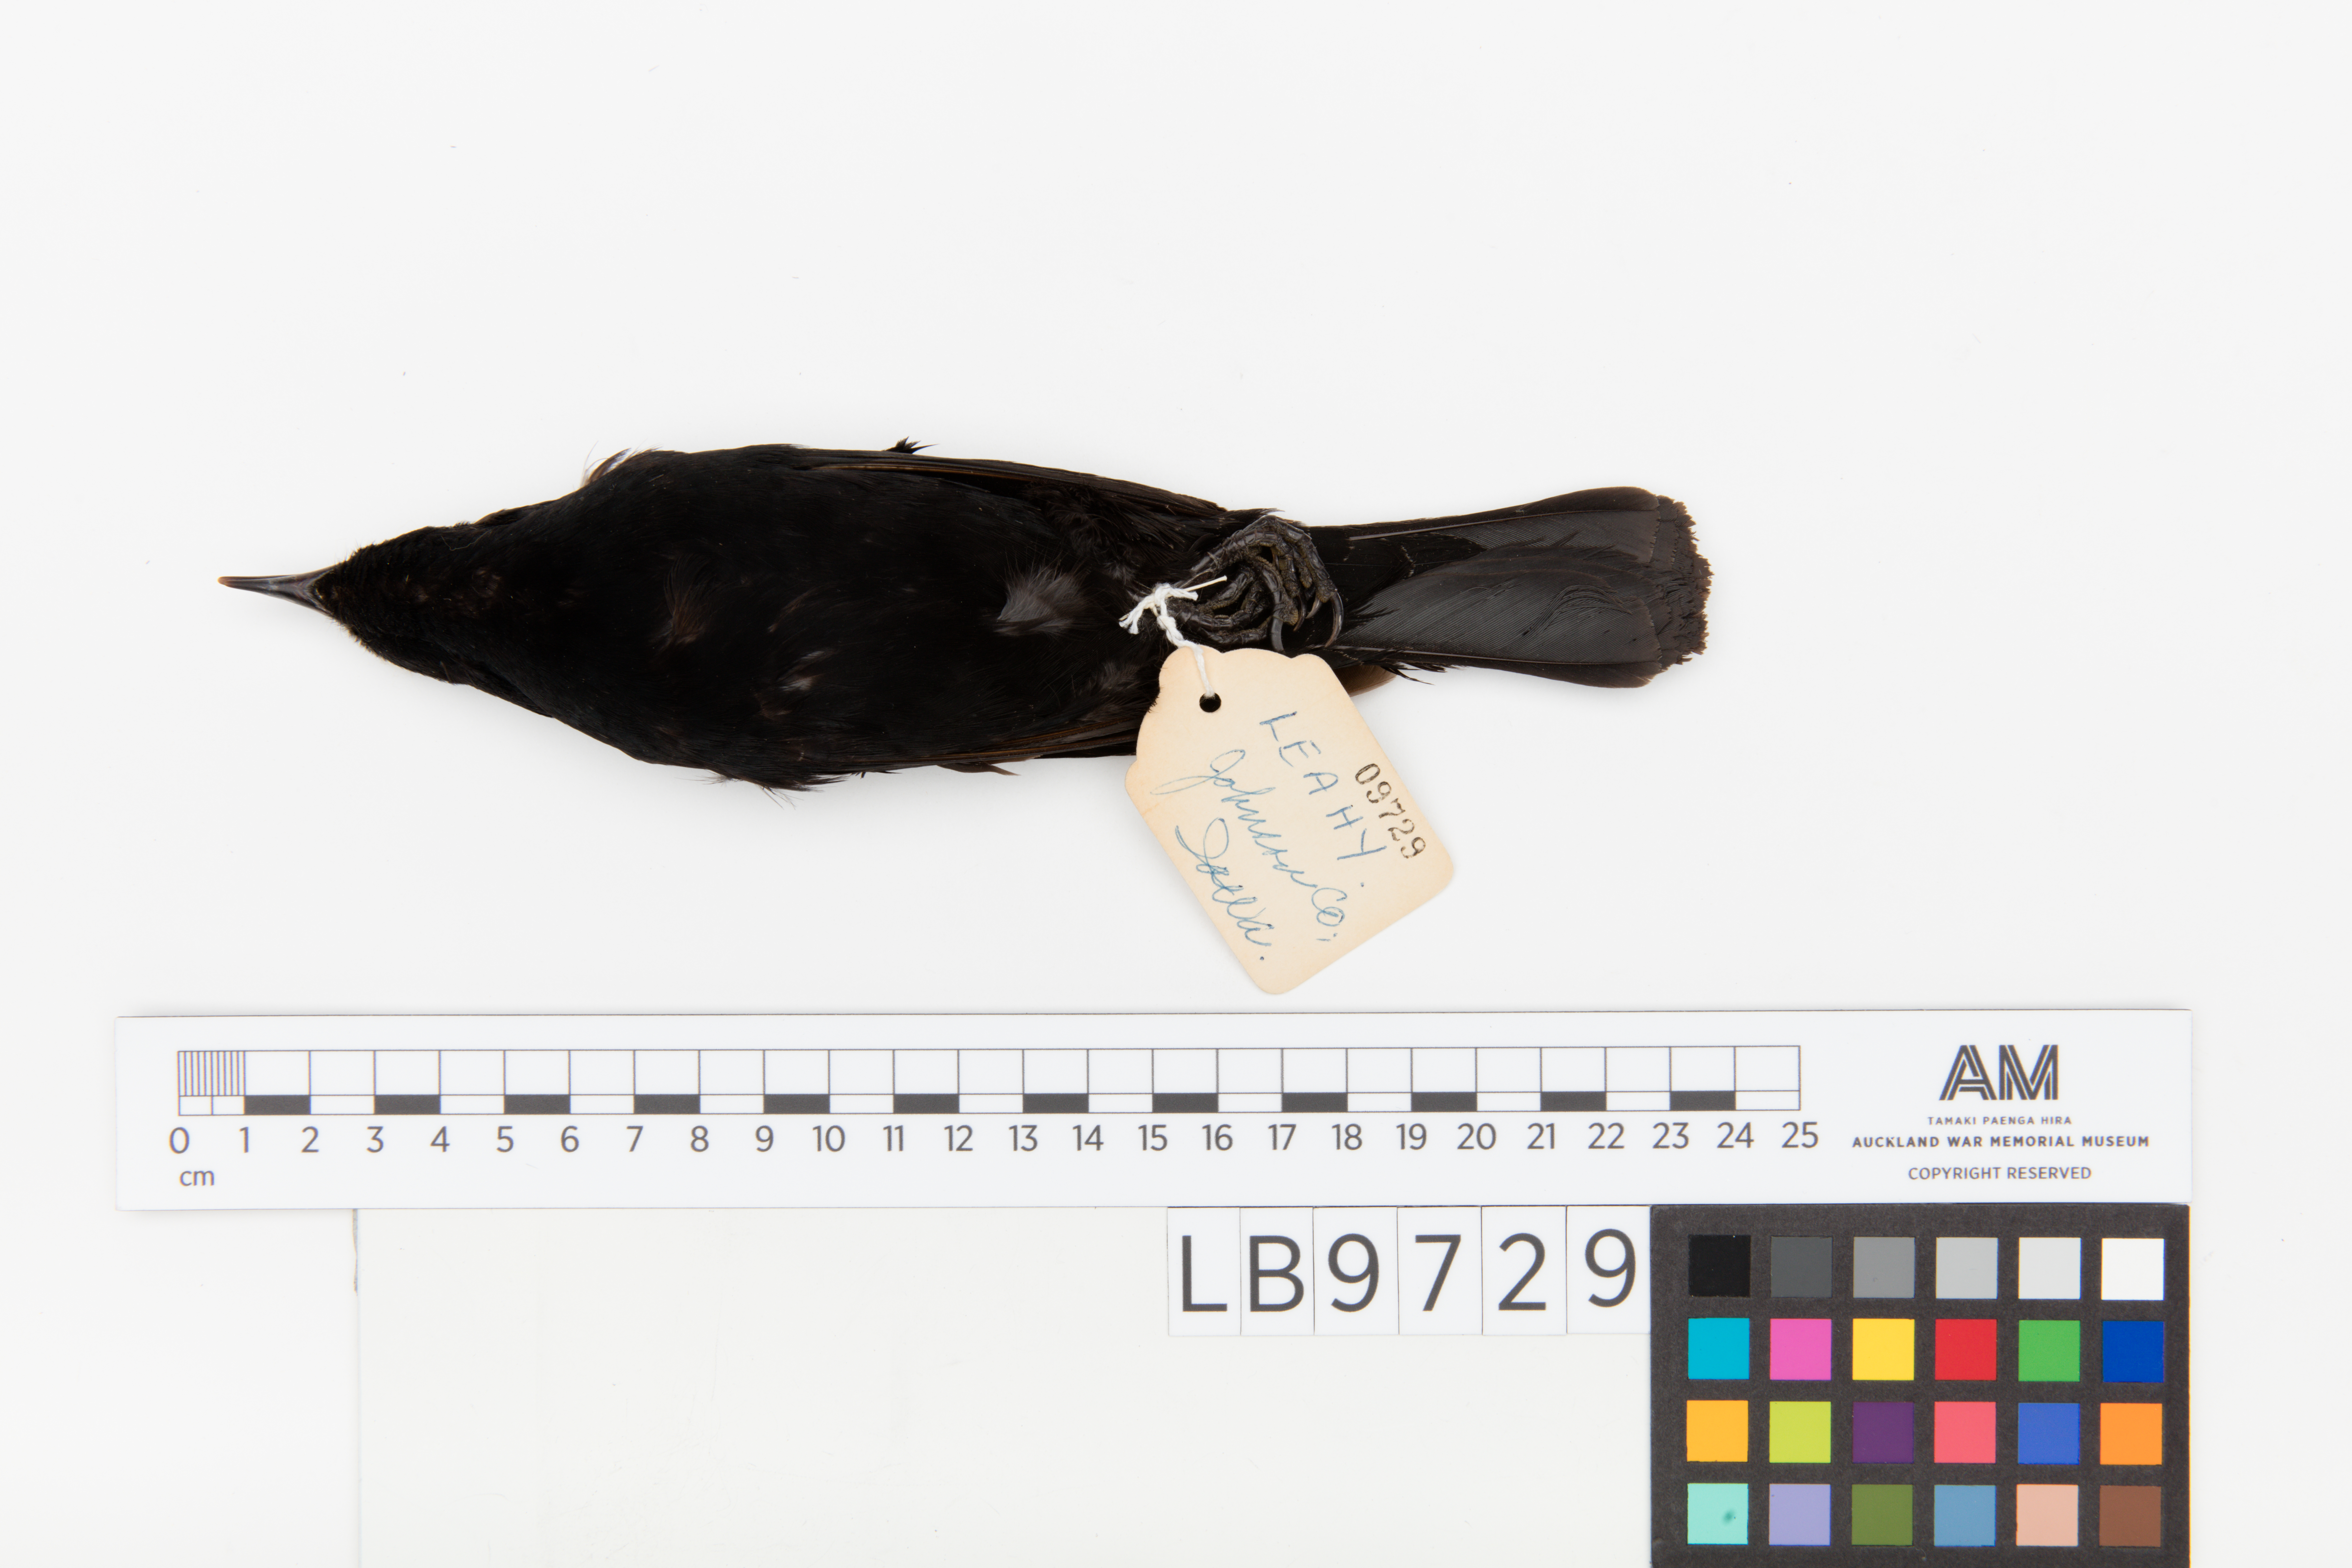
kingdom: Animalia
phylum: Chordata
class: Aves
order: Passeriformes
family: Icteridae
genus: Agelaius
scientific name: Agelaius phoeniceus
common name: Red-winged blackbird
